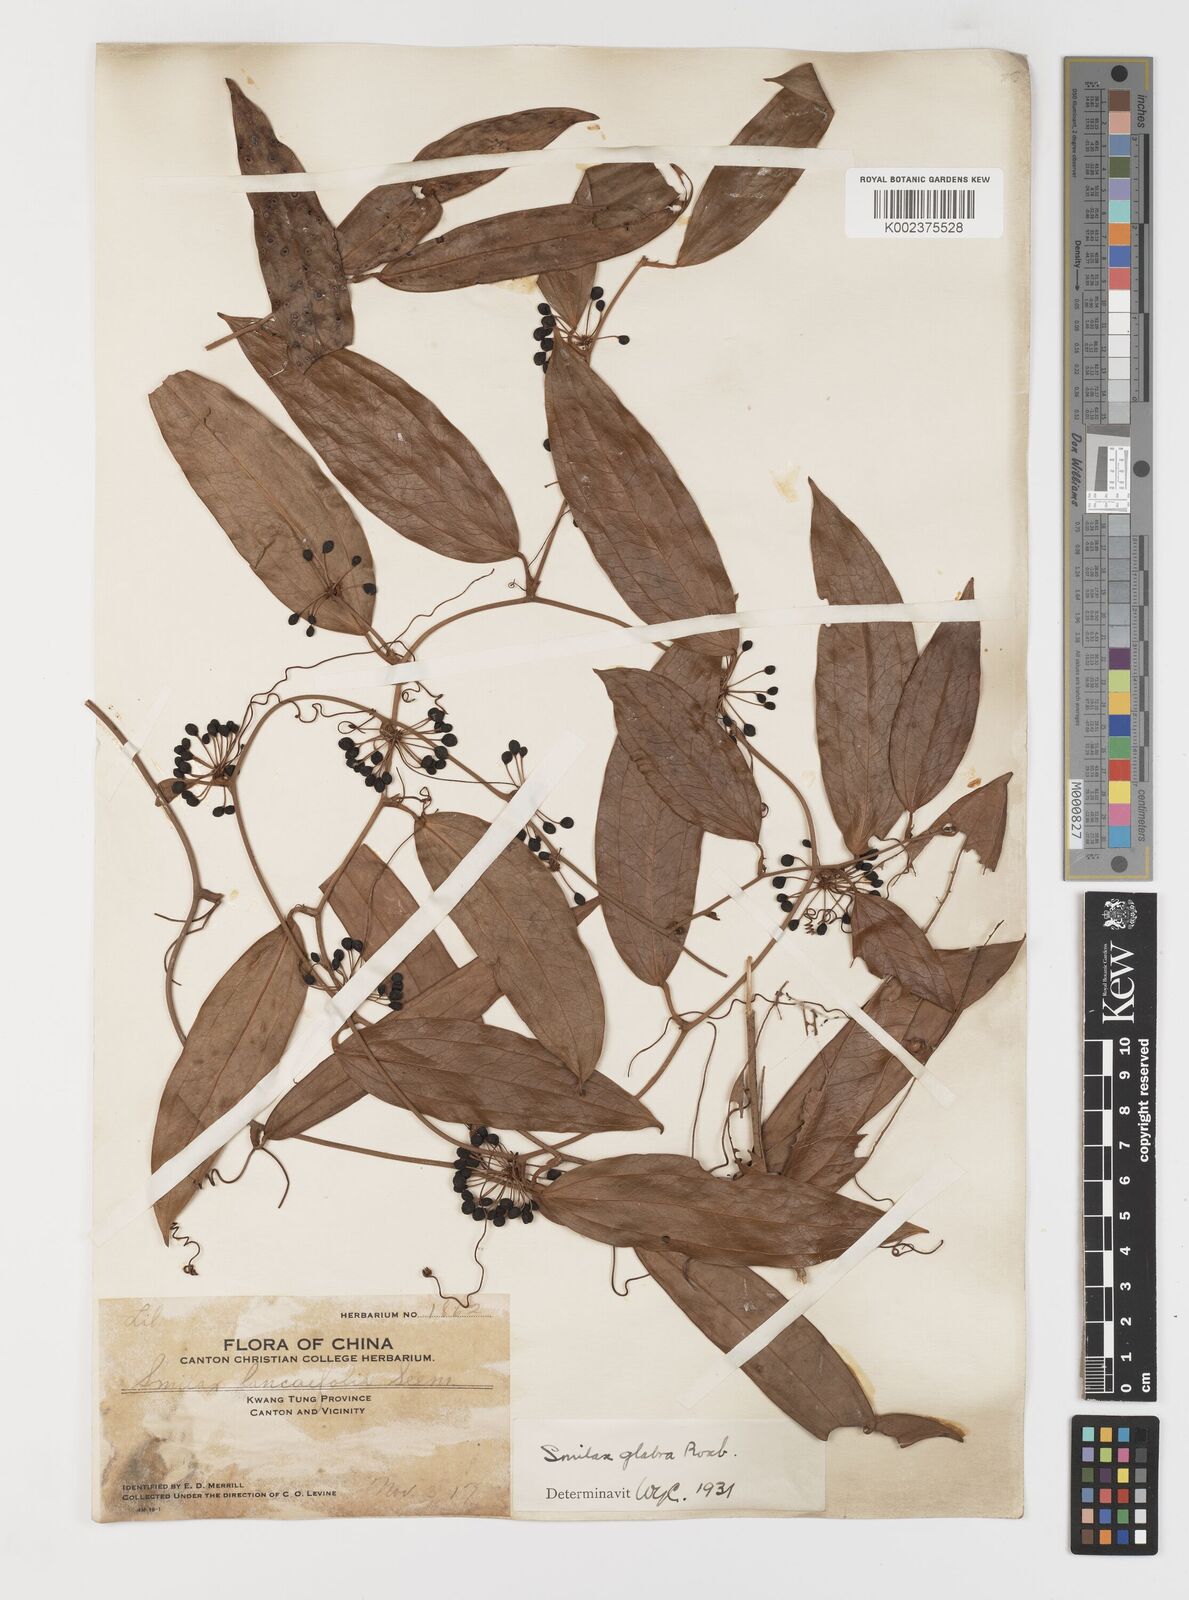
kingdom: Plantae
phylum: Tracheophyta
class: Liliopsida
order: Liliales
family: Smilacaceae
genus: Smilax
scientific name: Smilax laevis
